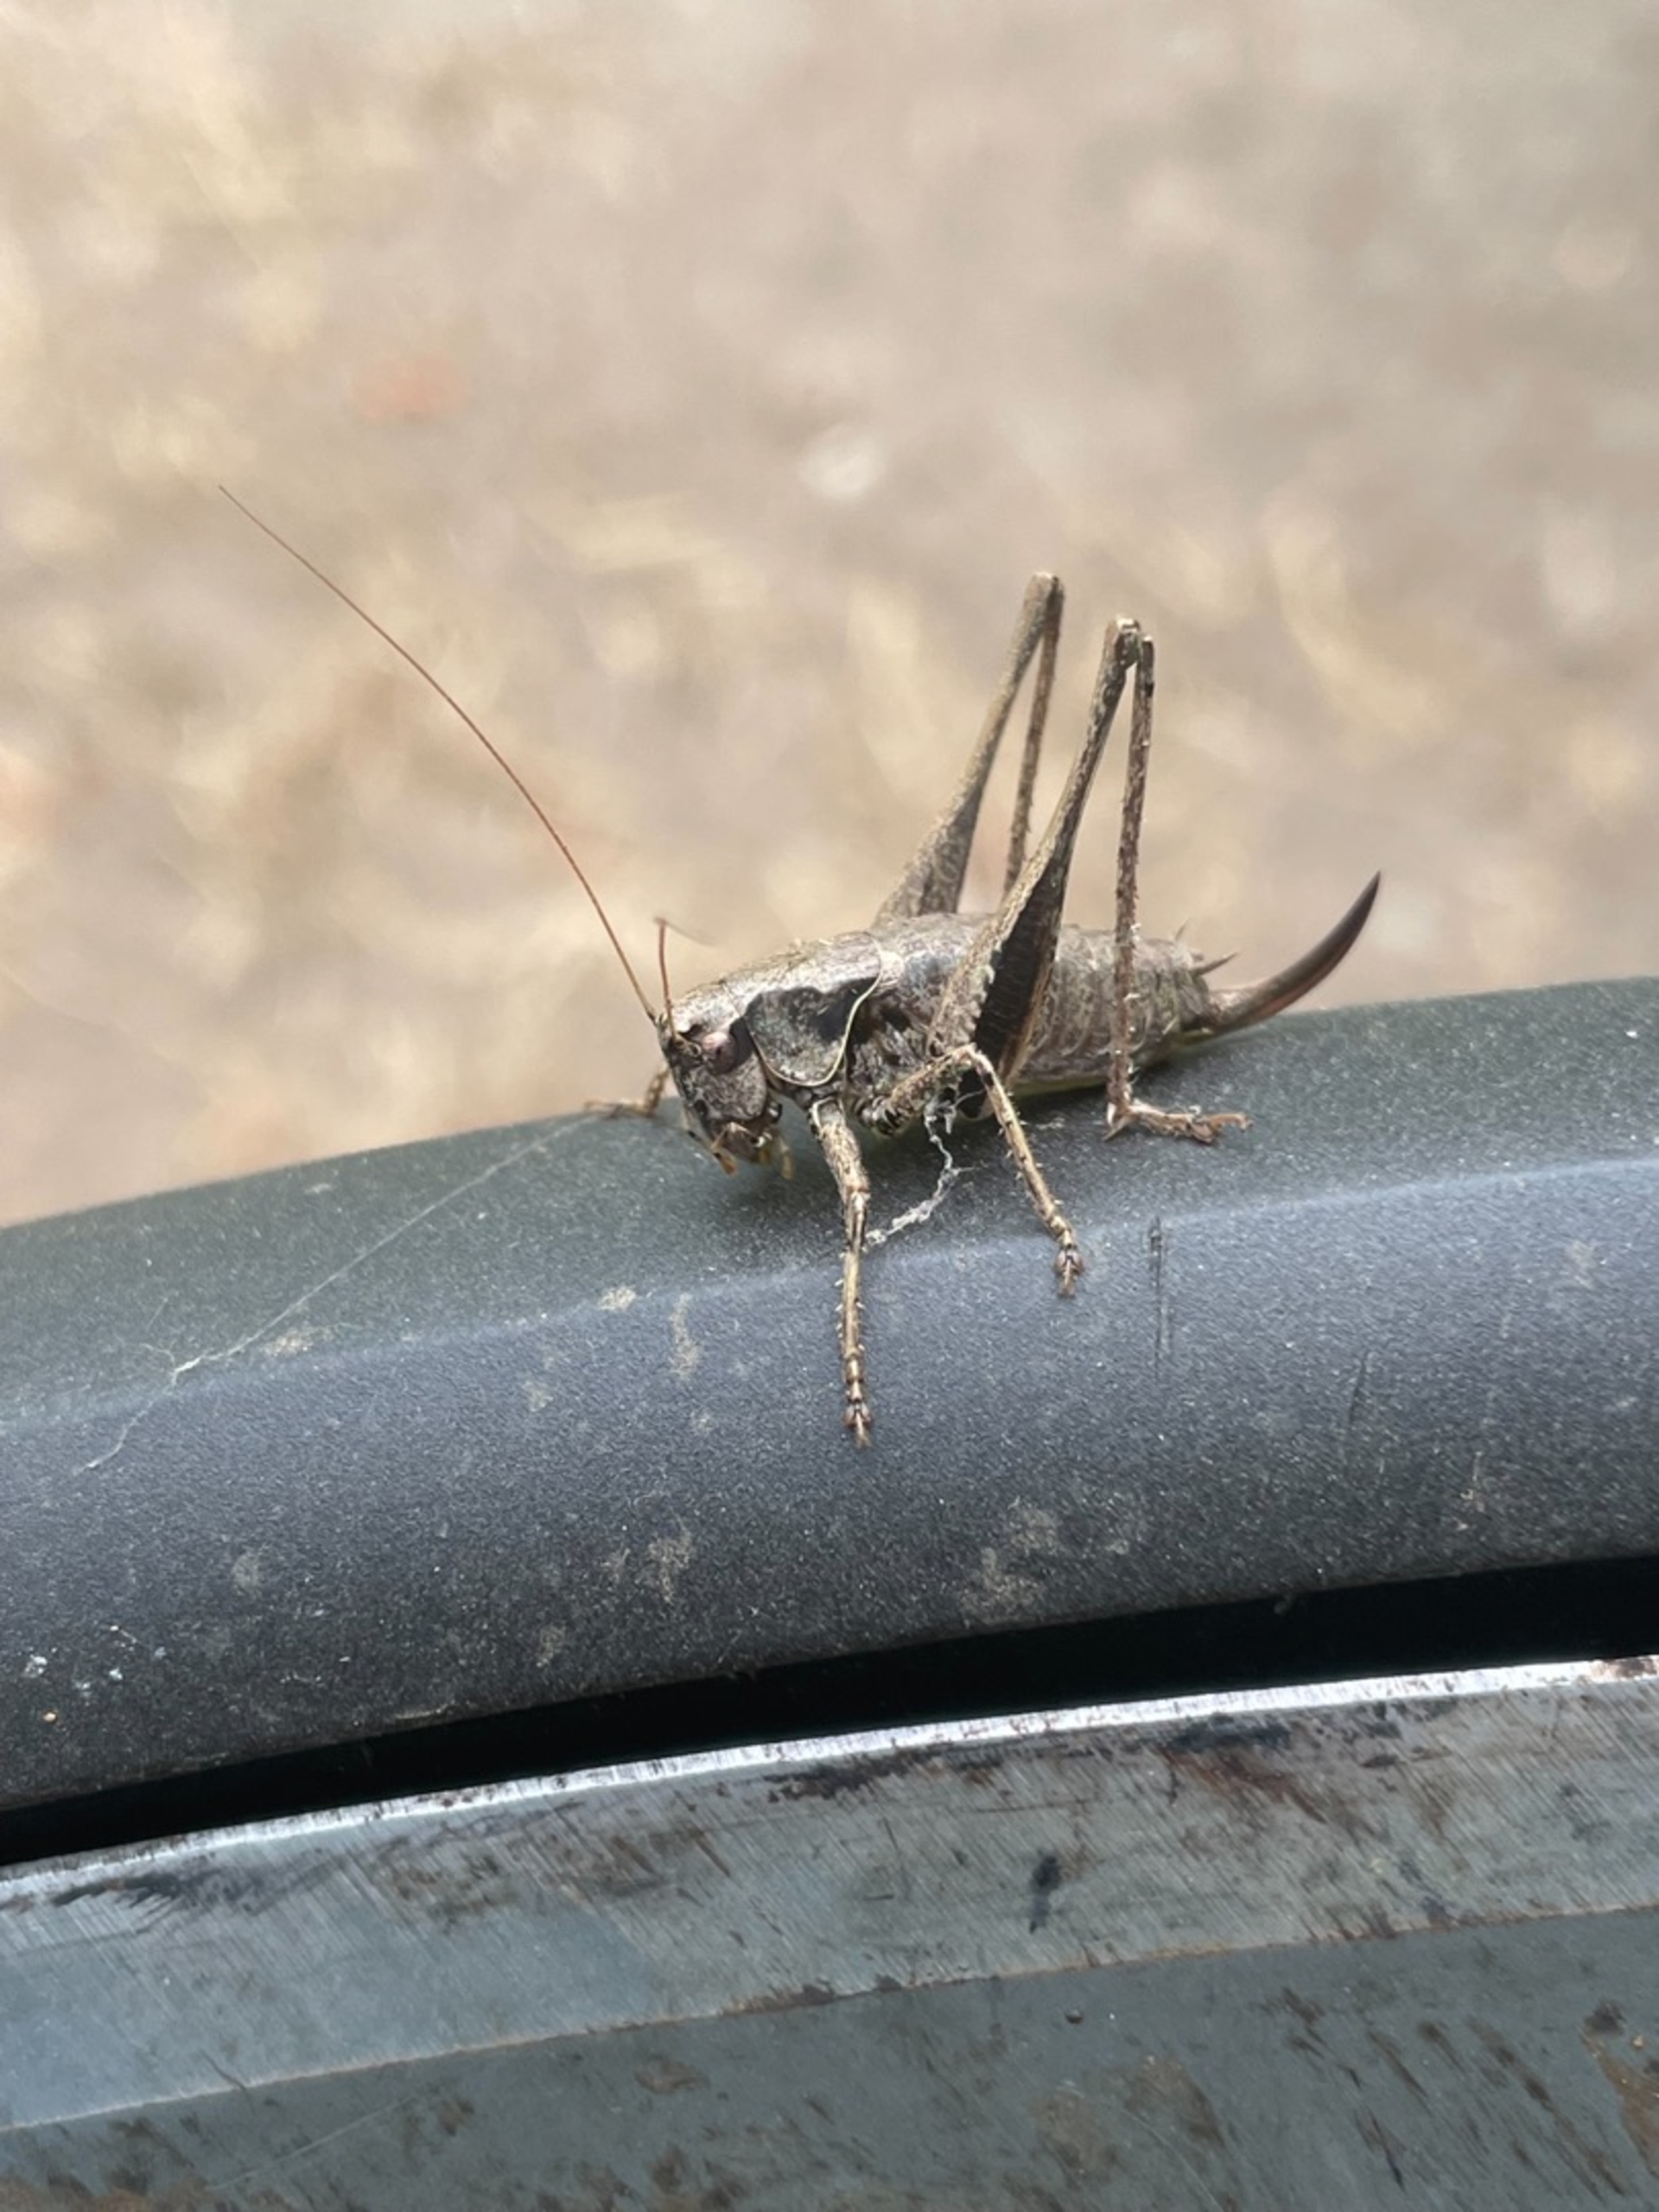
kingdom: Animalia
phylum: Arthropoda
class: Insecta
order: Orthoptera
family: Tettigoniidae
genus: Pholidoptera
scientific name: Pholidoptera griseoaptera
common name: Buskgræshoppe
